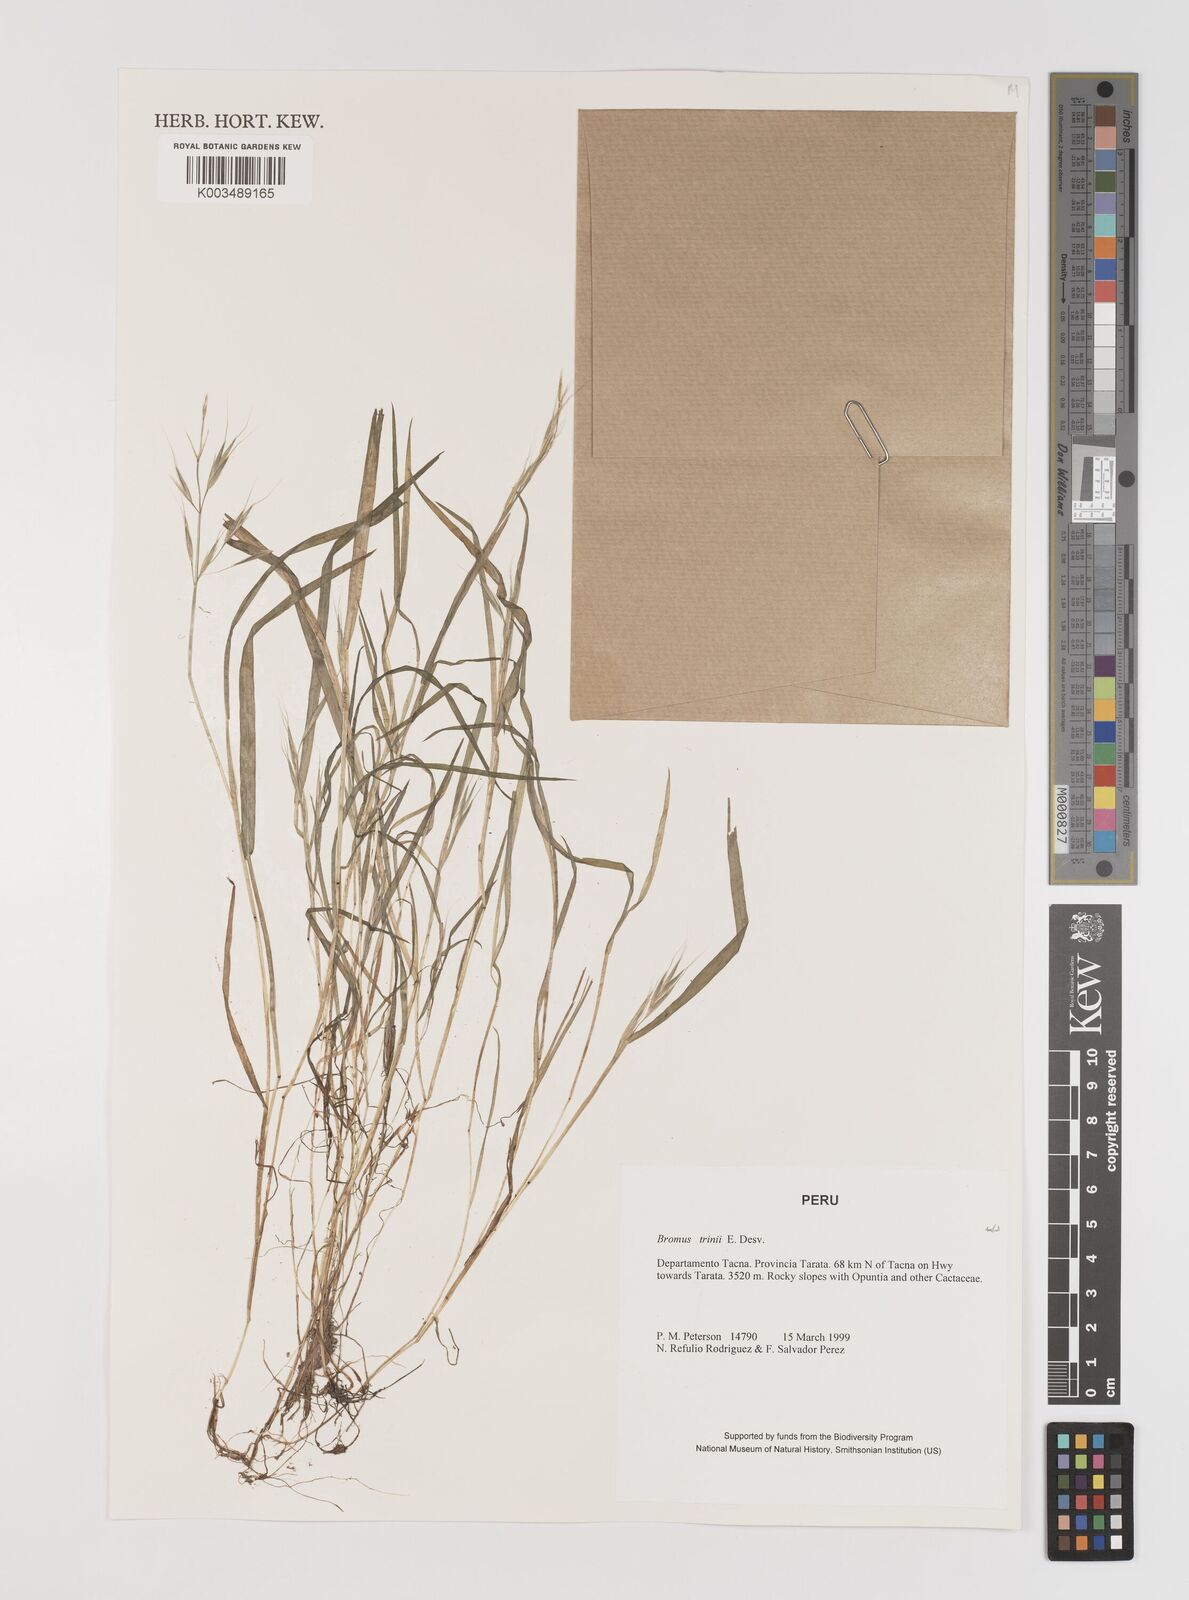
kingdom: Plantae
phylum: Tracheophyta
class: Liliopsida
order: Poales
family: Poaceae
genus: Bromus
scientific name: Bromus berteroanus
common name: Chilean chess
